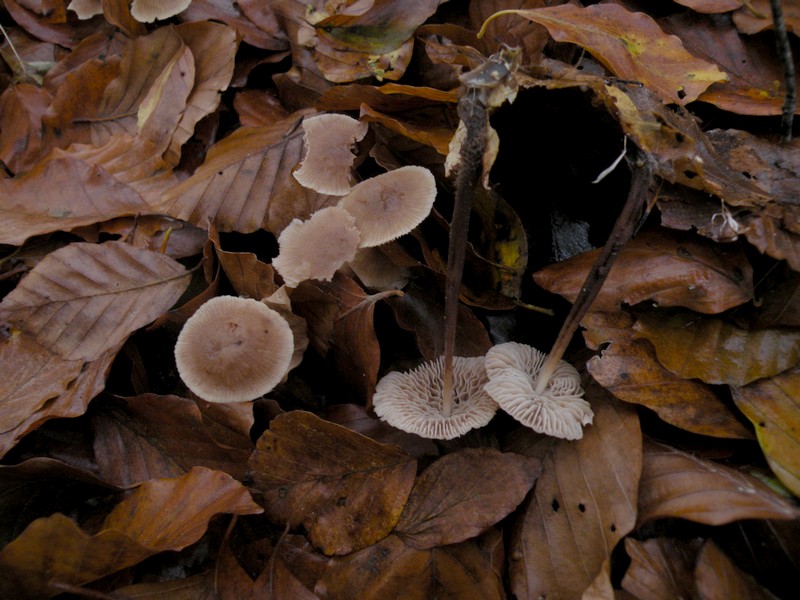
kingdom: Fungi
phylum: Basidiomycota
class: Agaricomycetes
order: Agaricales
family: Omphalotaceae
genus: Mycetinis
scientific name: Mycetinis querceus
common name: ege-løghat
